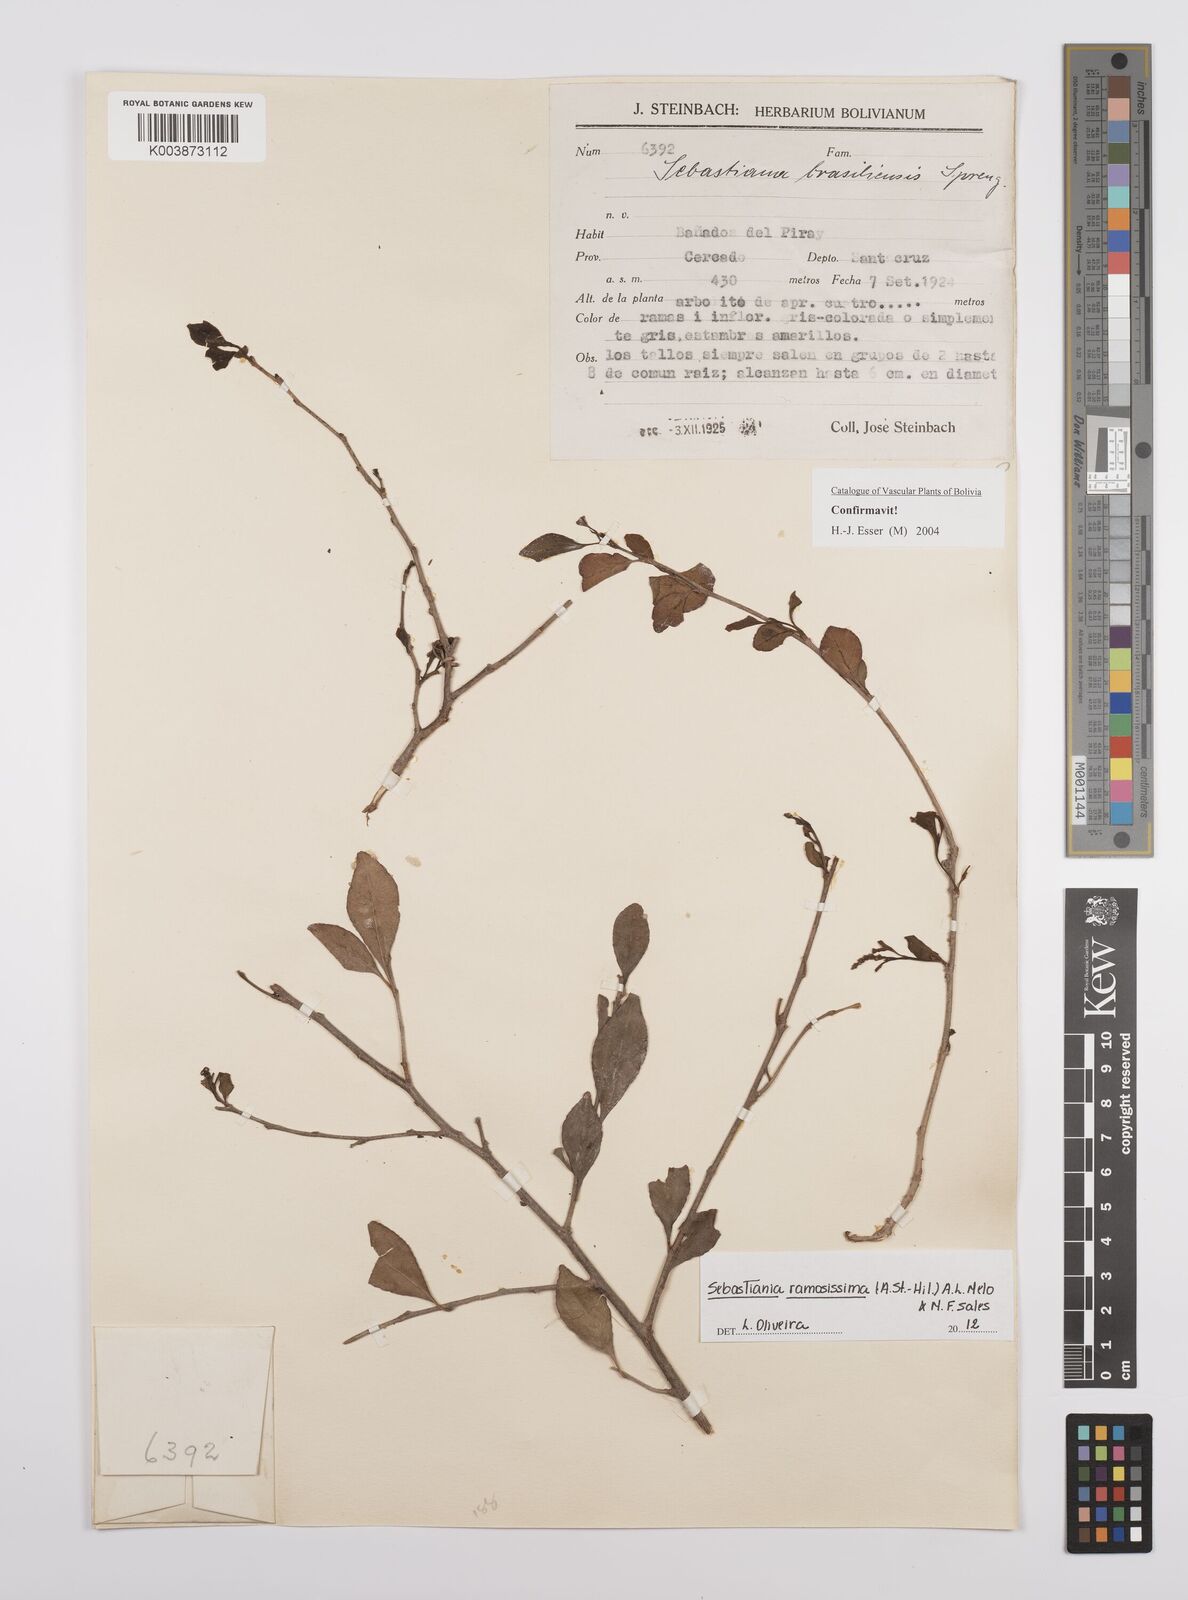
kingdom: Plantae
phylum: Tracheophyta
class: Magnoliopsida
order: Malpighiales
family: Euphorbiaceae
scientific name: Euphorbiaceae
